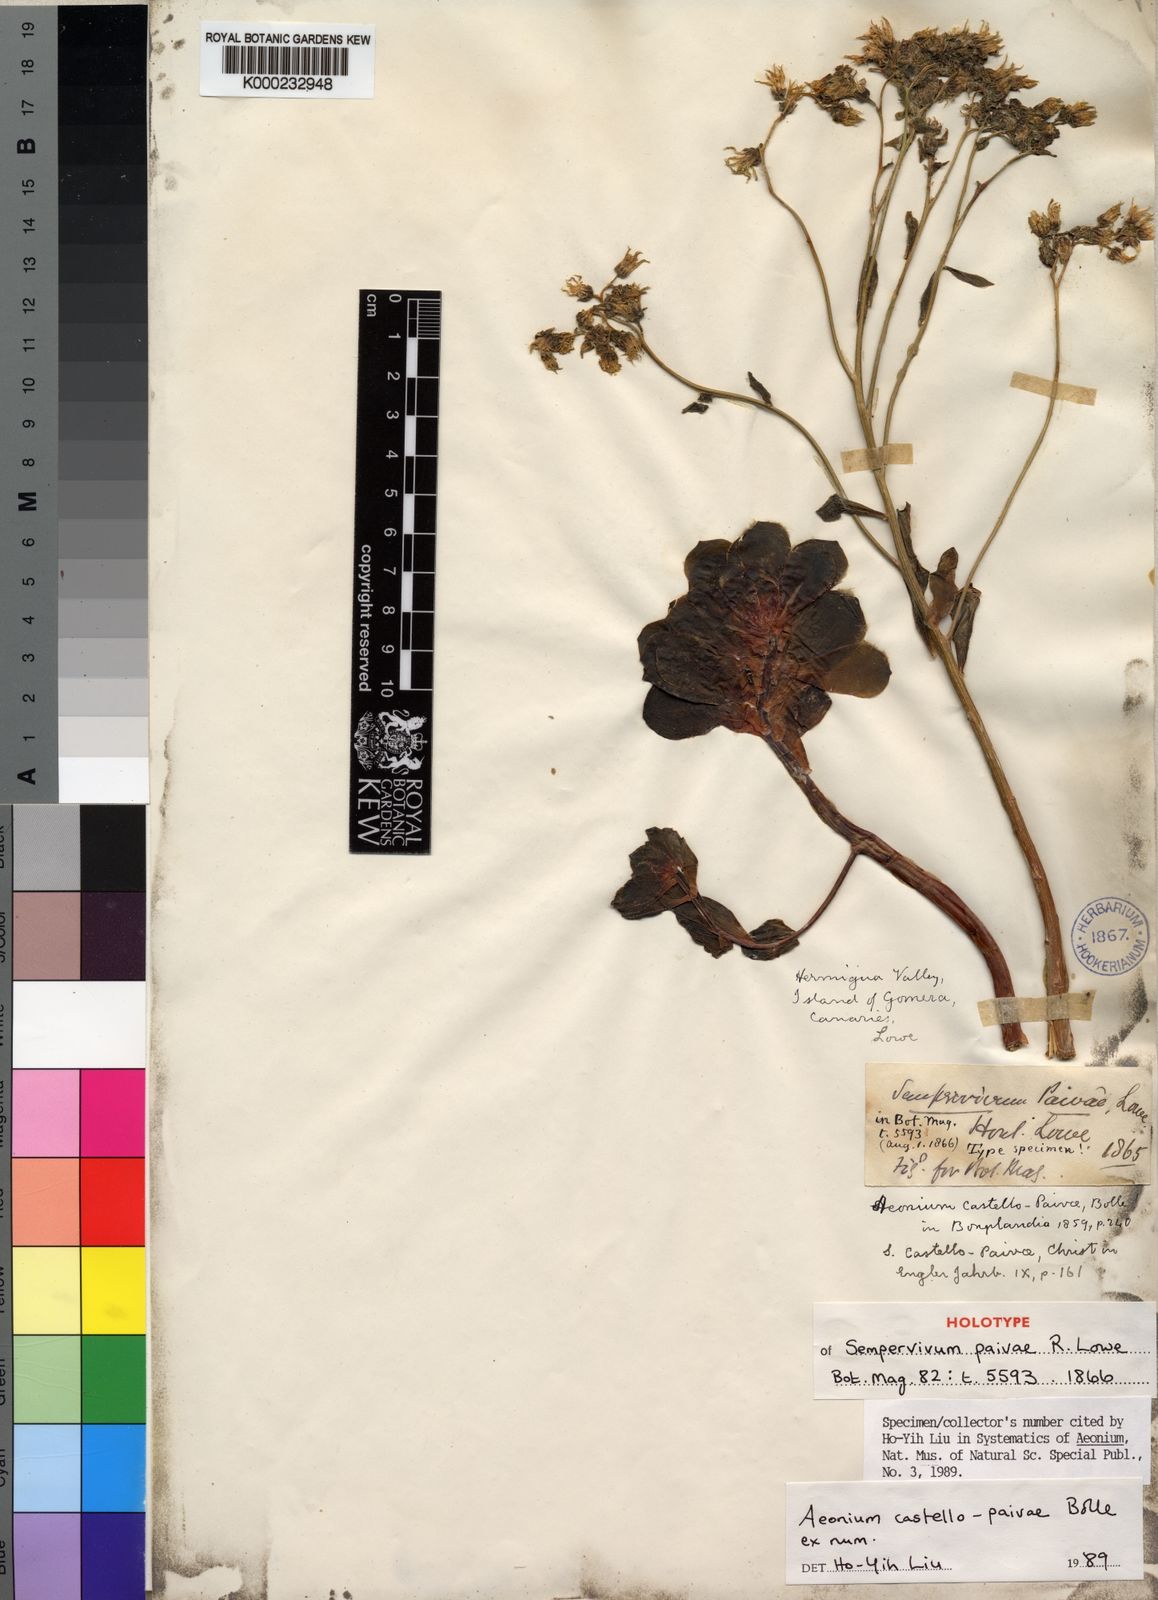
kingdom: Plantae
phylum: Tracheophyta
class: Magnoliopsida
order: Saxifragales
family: Crassulaceae
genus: Aeonium
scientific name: Aeonium castello-paivae
